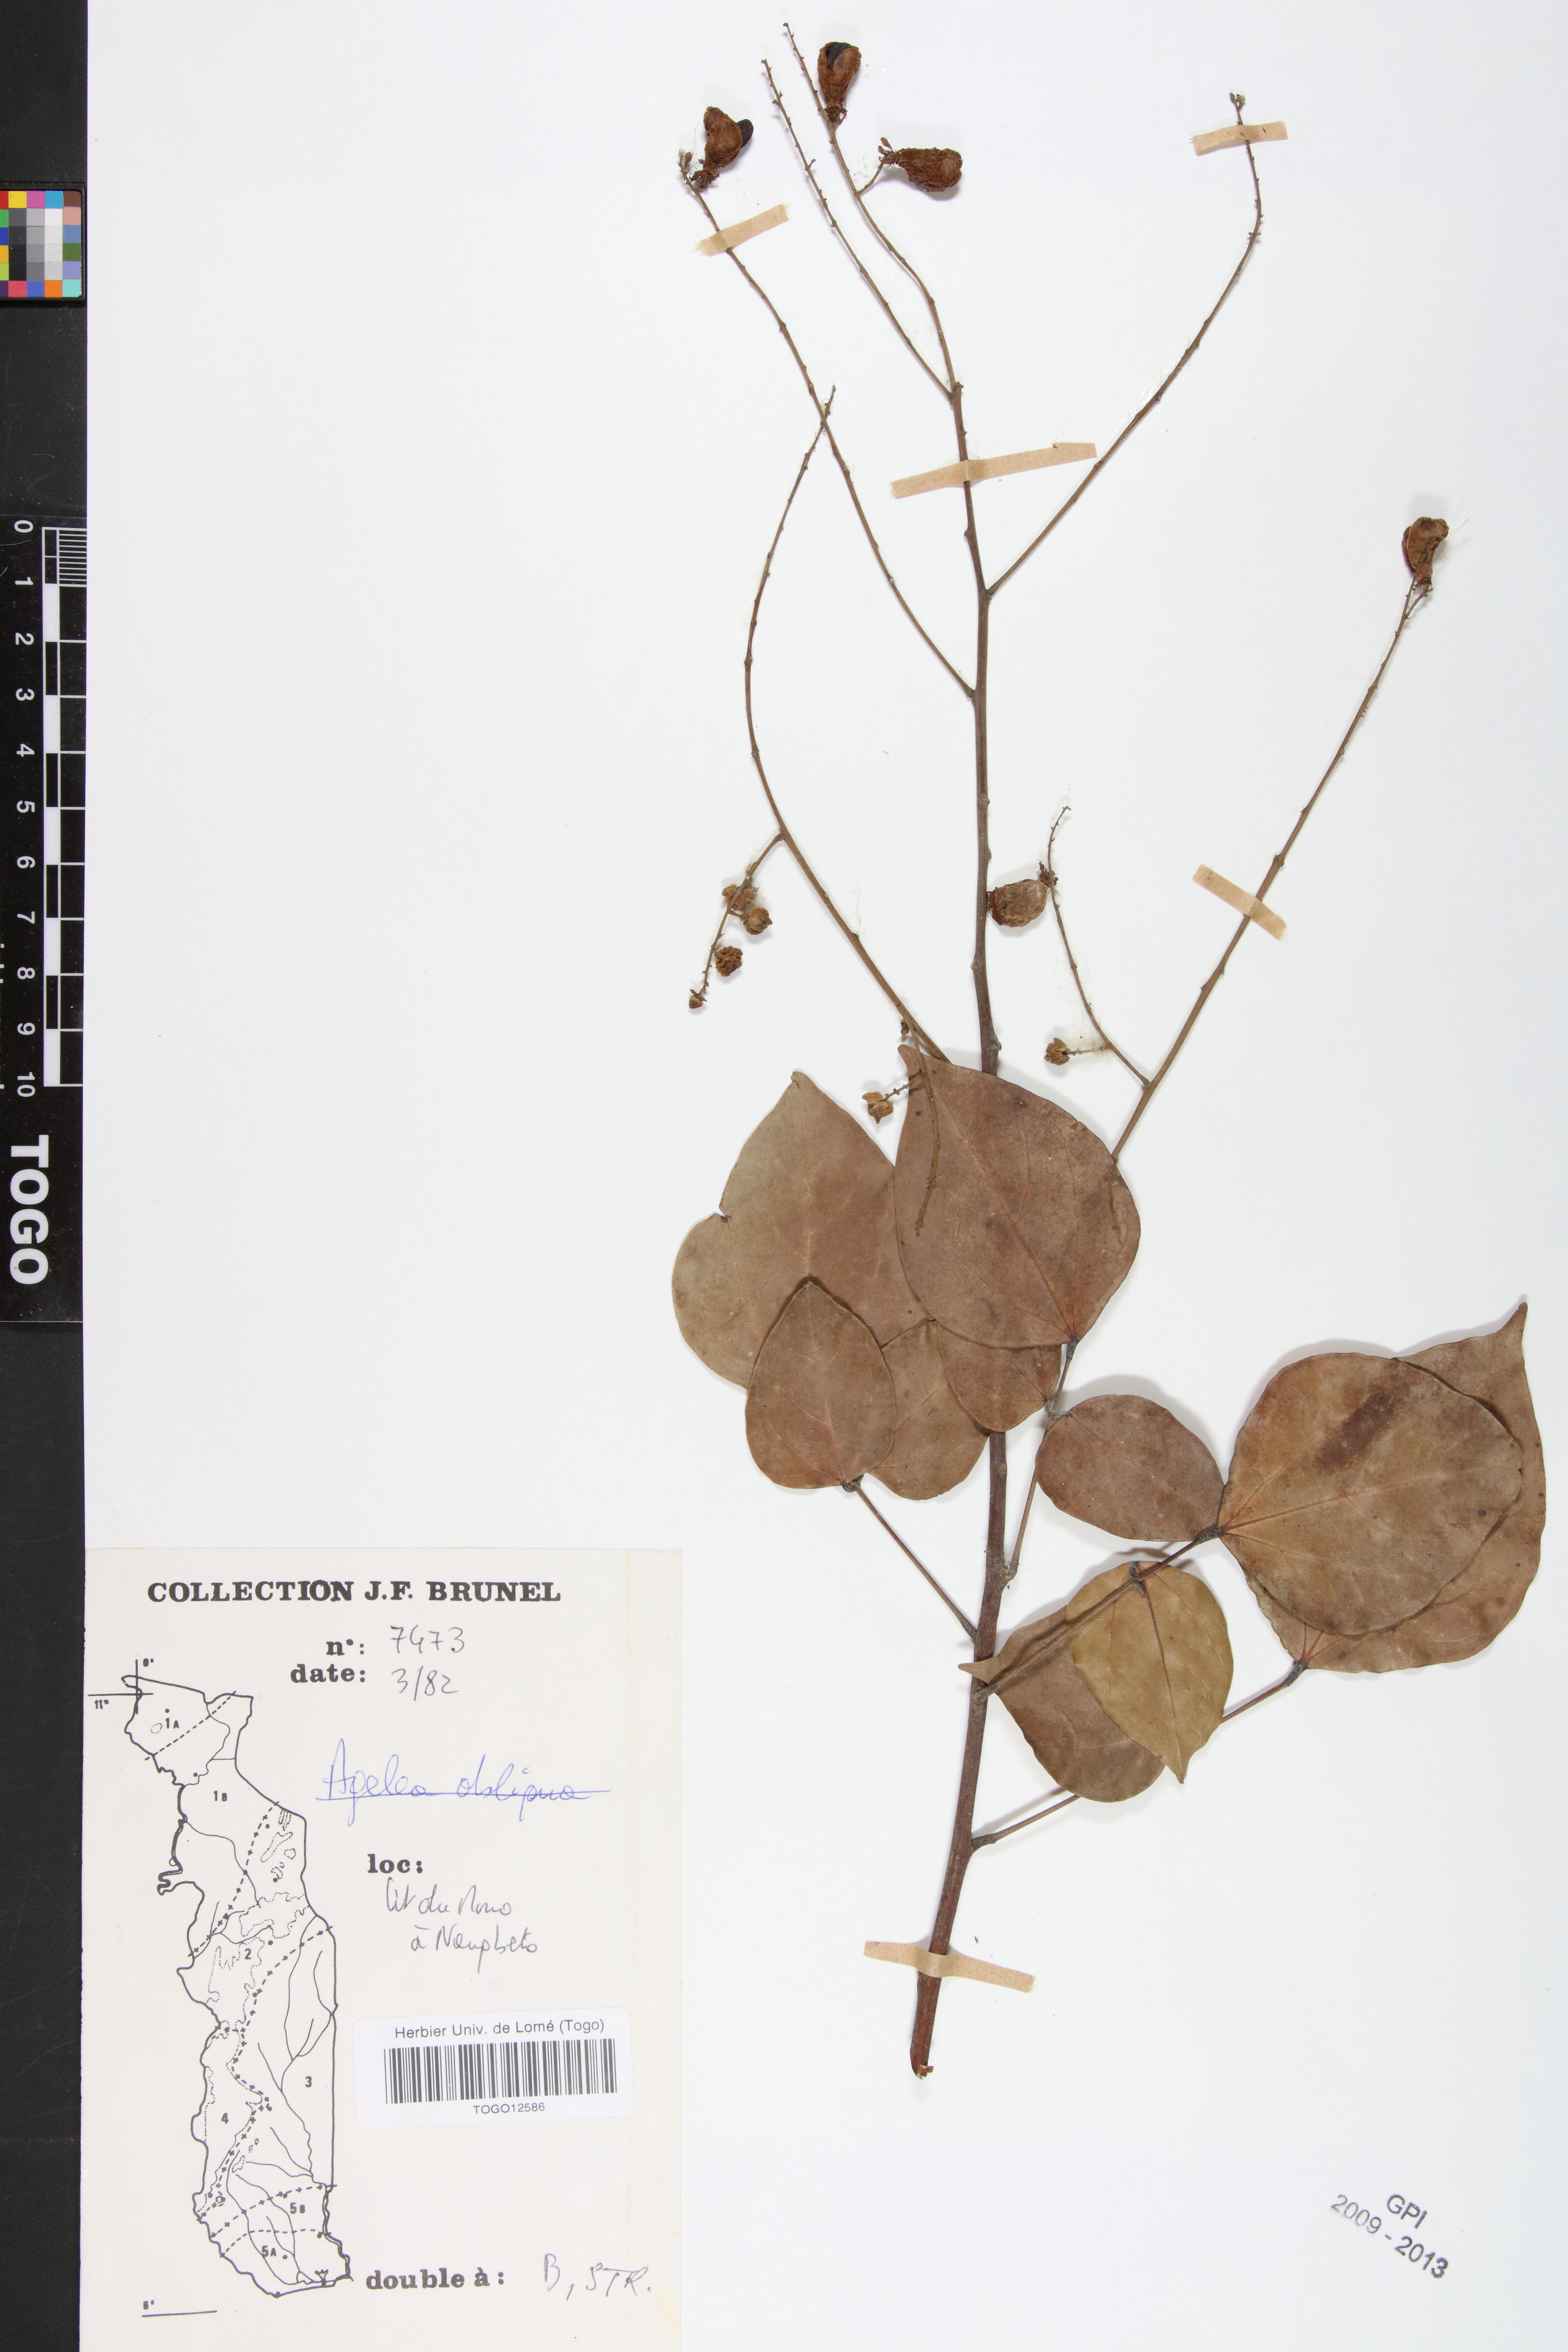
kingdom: Plantae
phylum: Tracheophyta
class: Magnoliopsida
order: Oxalidales
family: Connaraceae
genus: Agelaea
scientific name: Agelaea pentagyna
